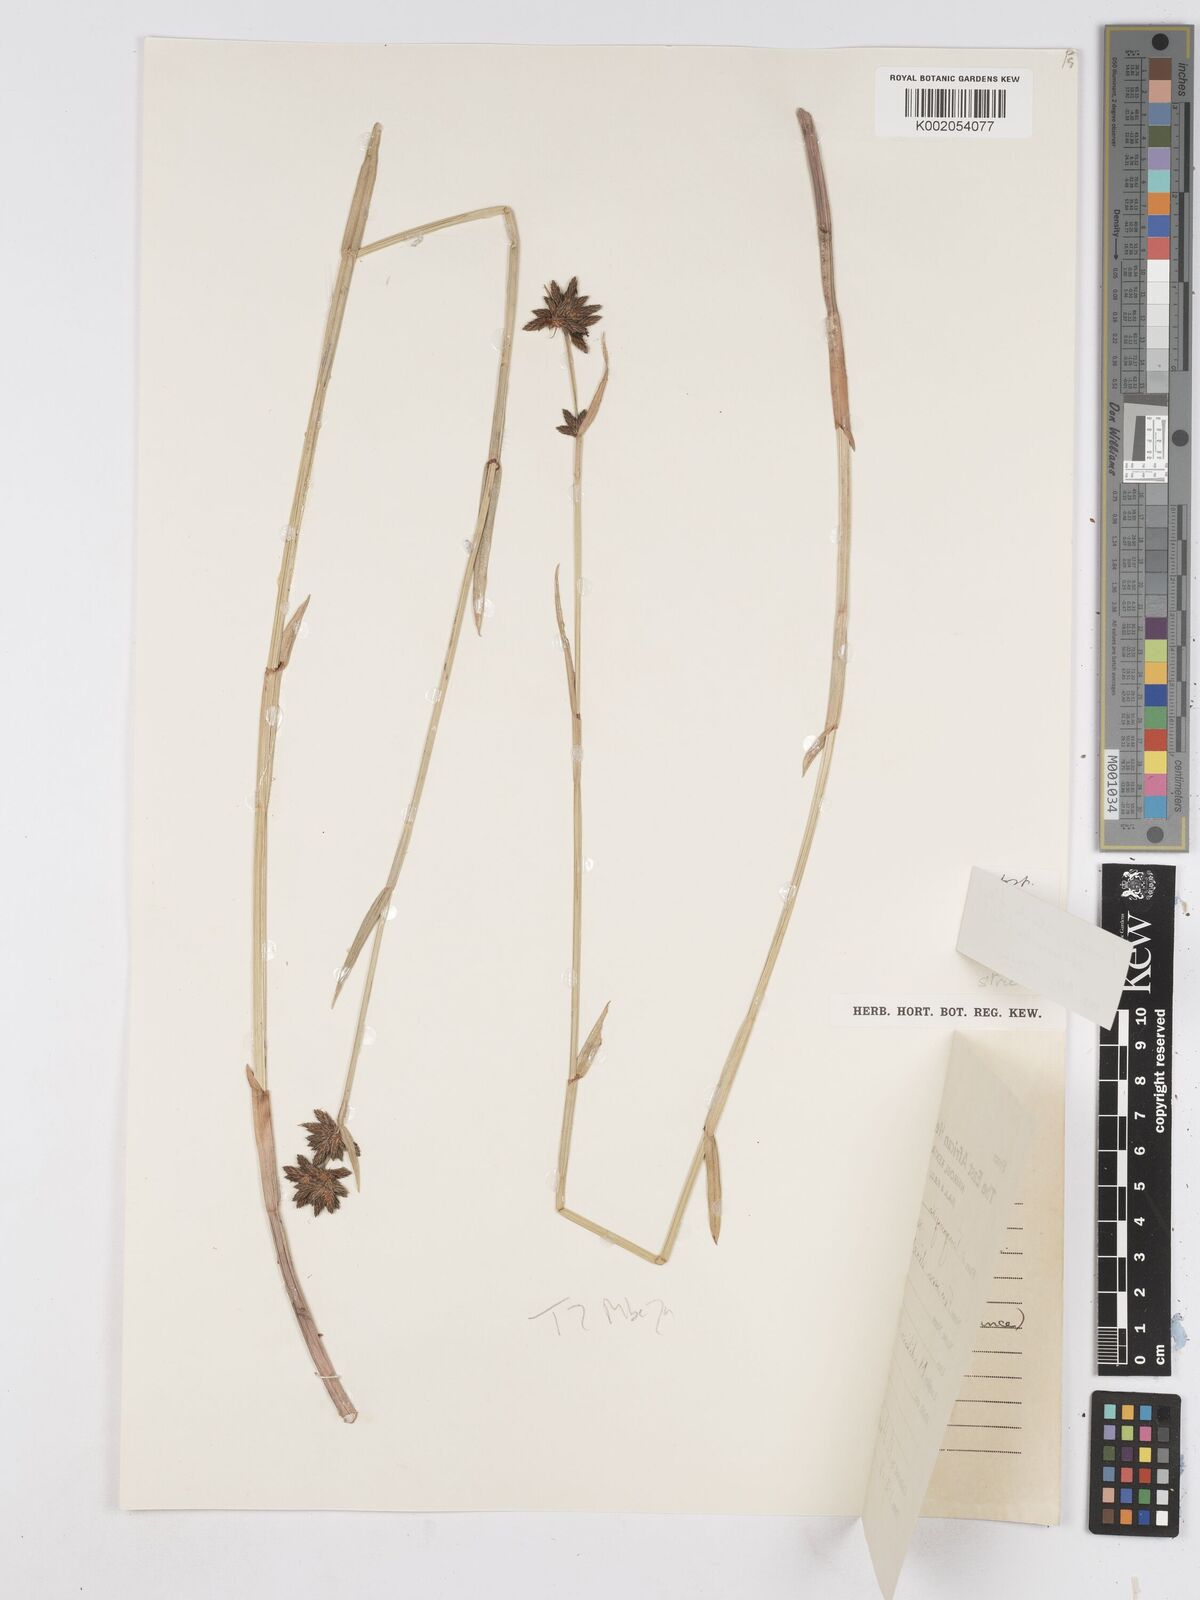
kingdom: Plantae
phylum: Tracheophyta
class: Liliopsida
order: Poales
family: Cyperaceae
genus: Fuirena
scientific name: Fuirena stricta
